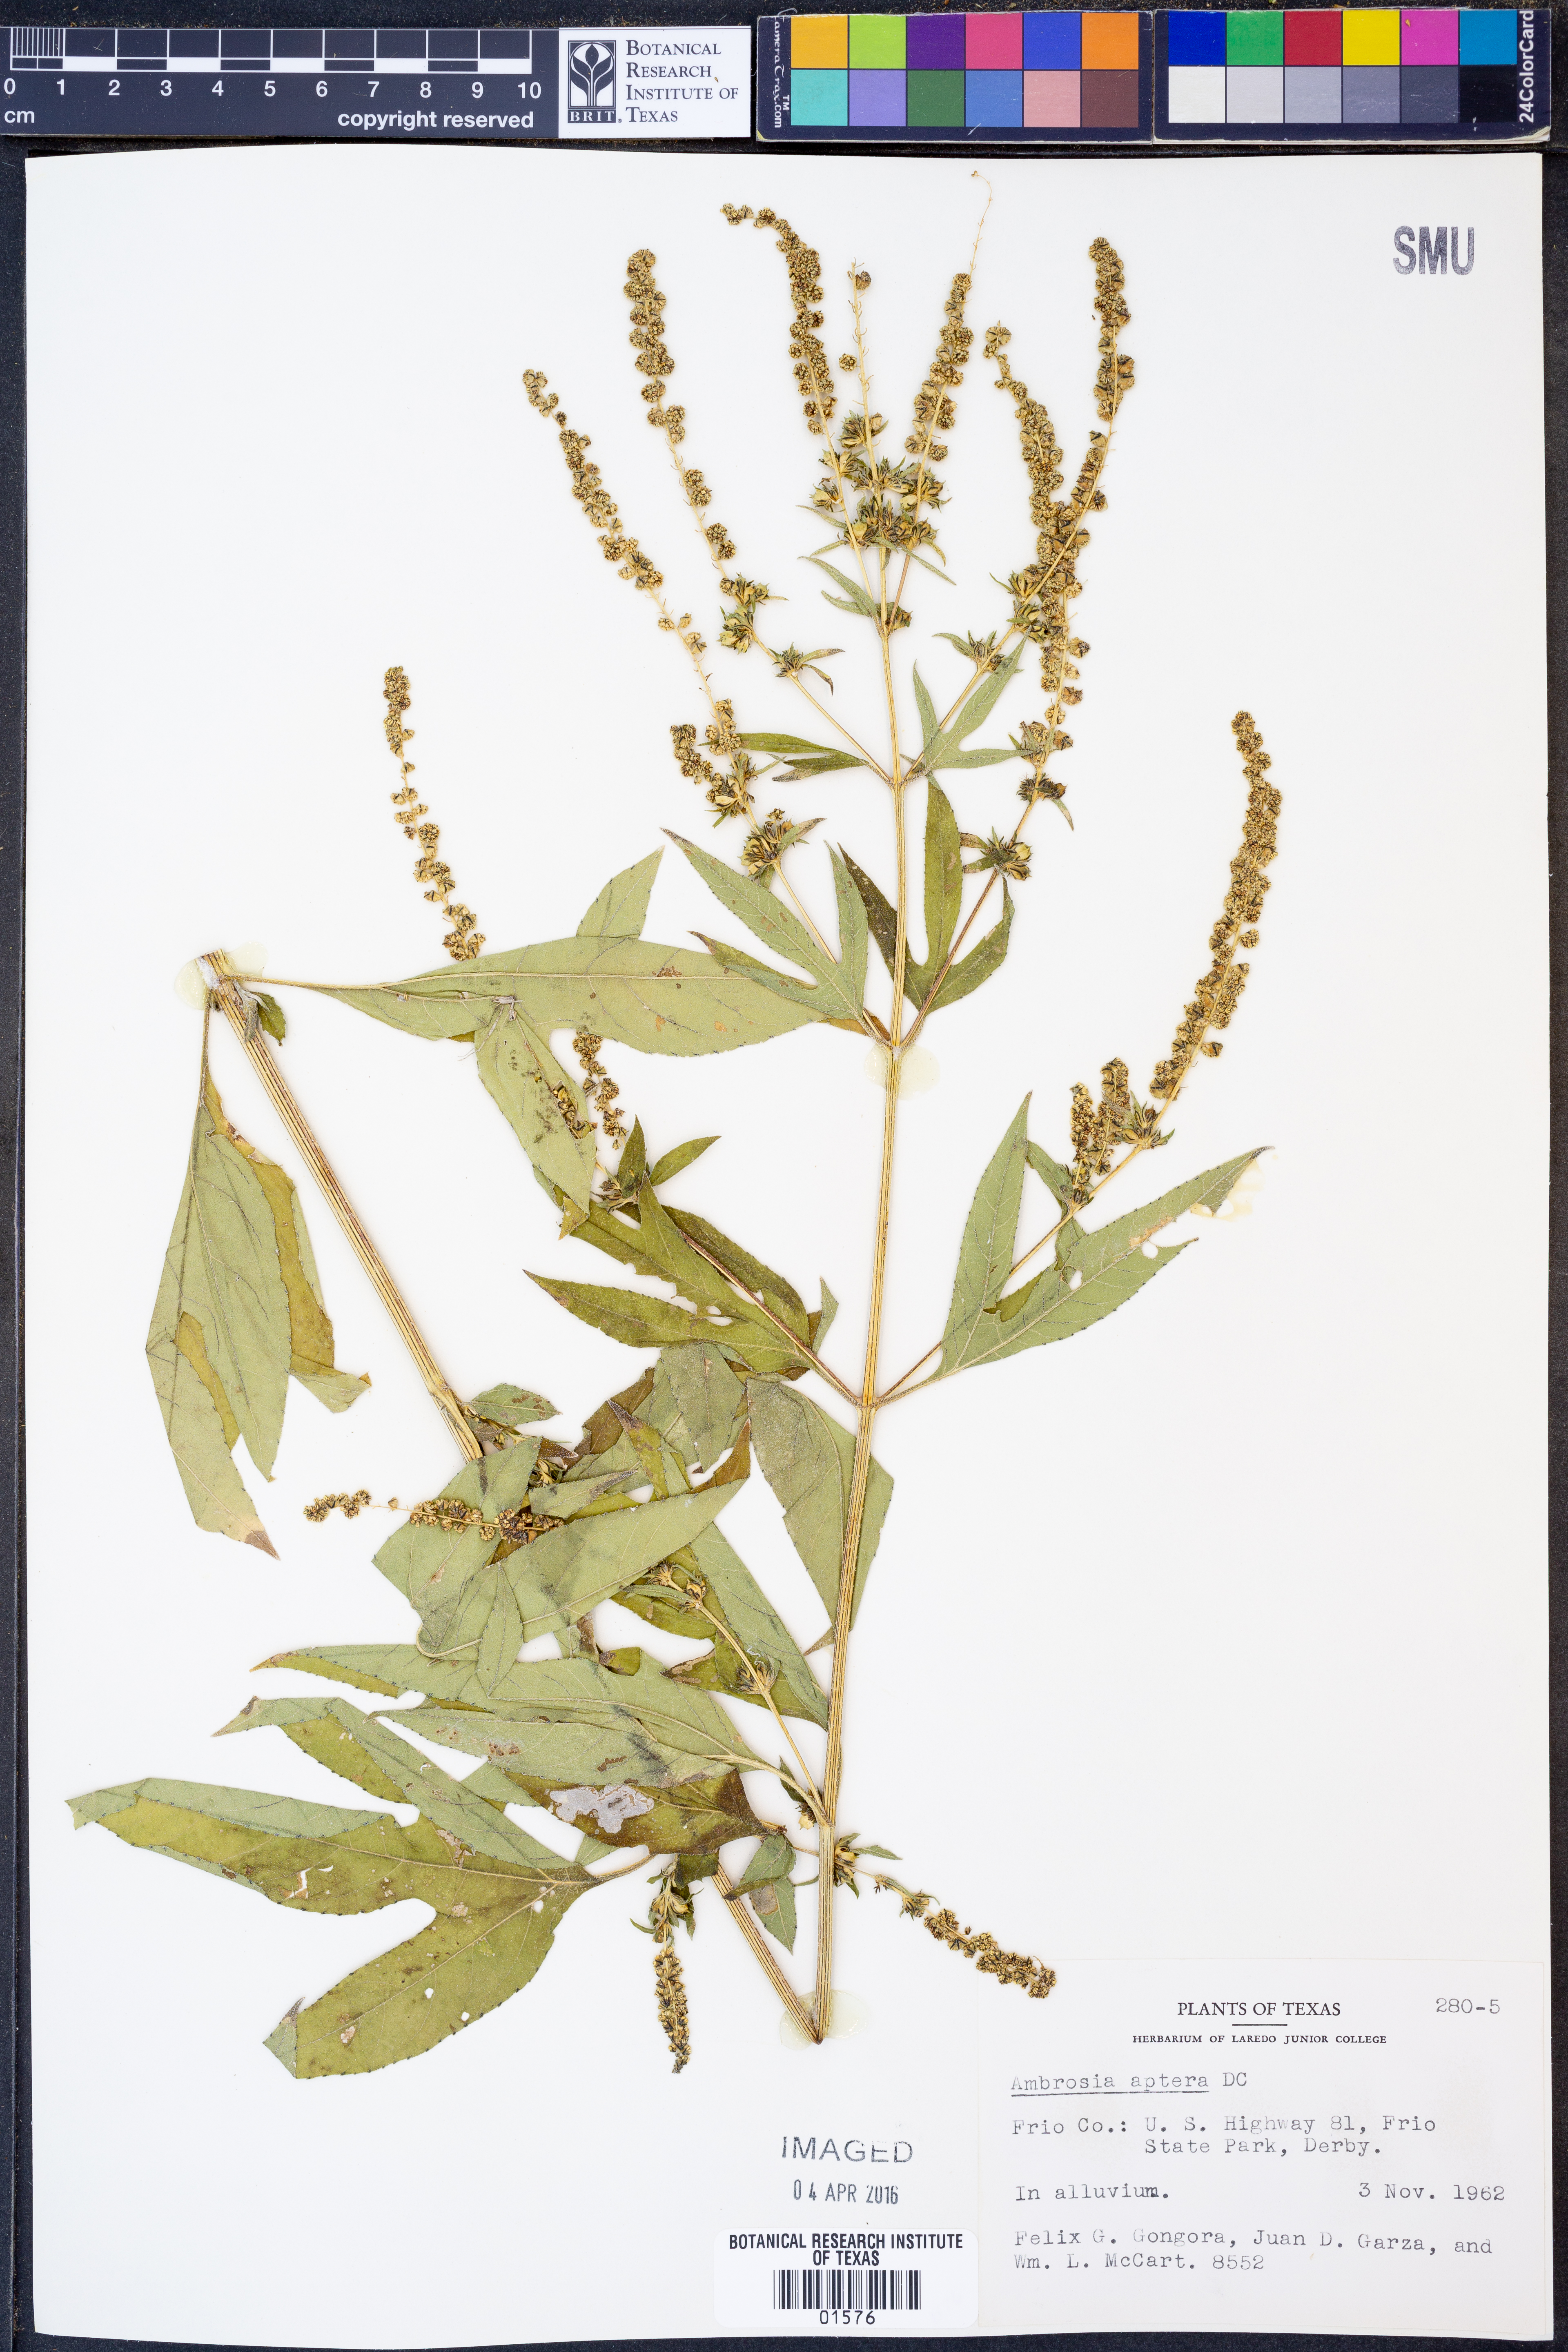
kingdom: Plantae
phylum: Tracheophyta
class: Magnoliopsida
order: Asterales
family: Asteraceae
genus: Ambrosia
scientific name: Ambrosia trifida
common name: Giant ragweed
